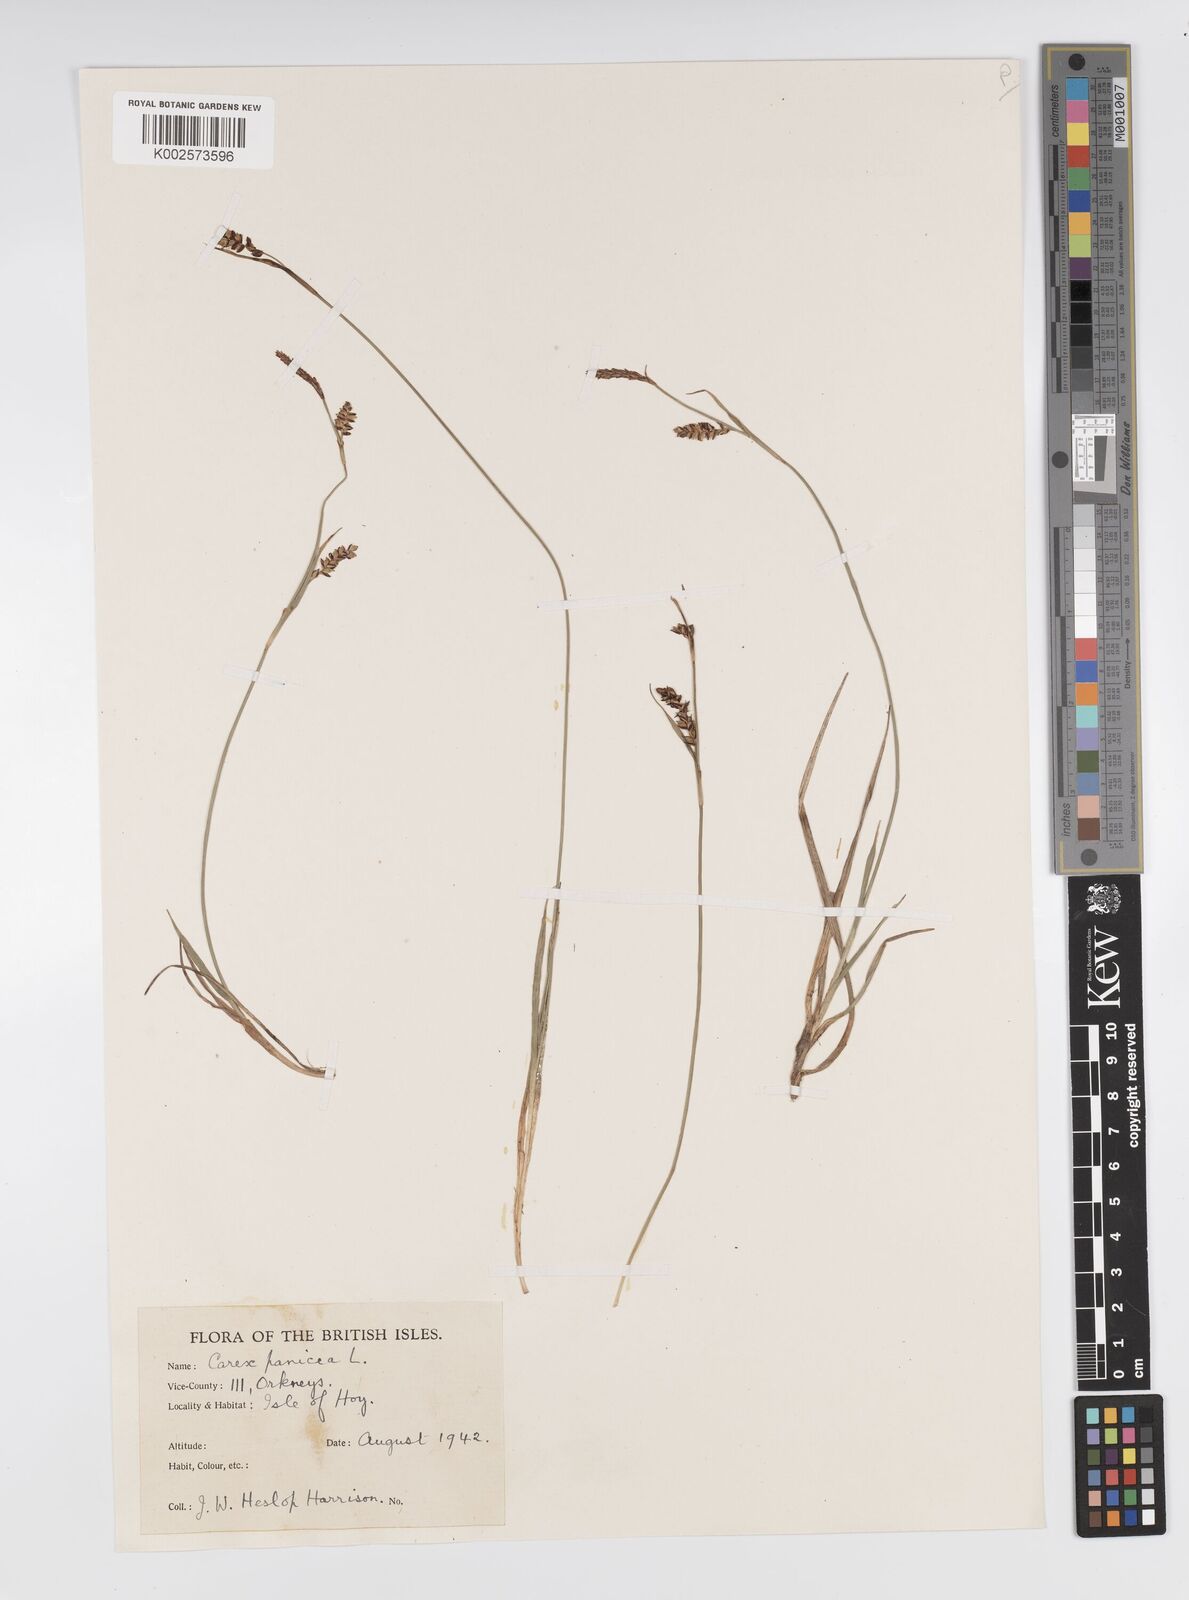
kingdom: Plantae
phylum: Tracheophyta
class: Liliopsida
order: Poales
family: Cyperaceae
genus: Carex
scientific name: Carex panicea
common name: Carnation sedge
